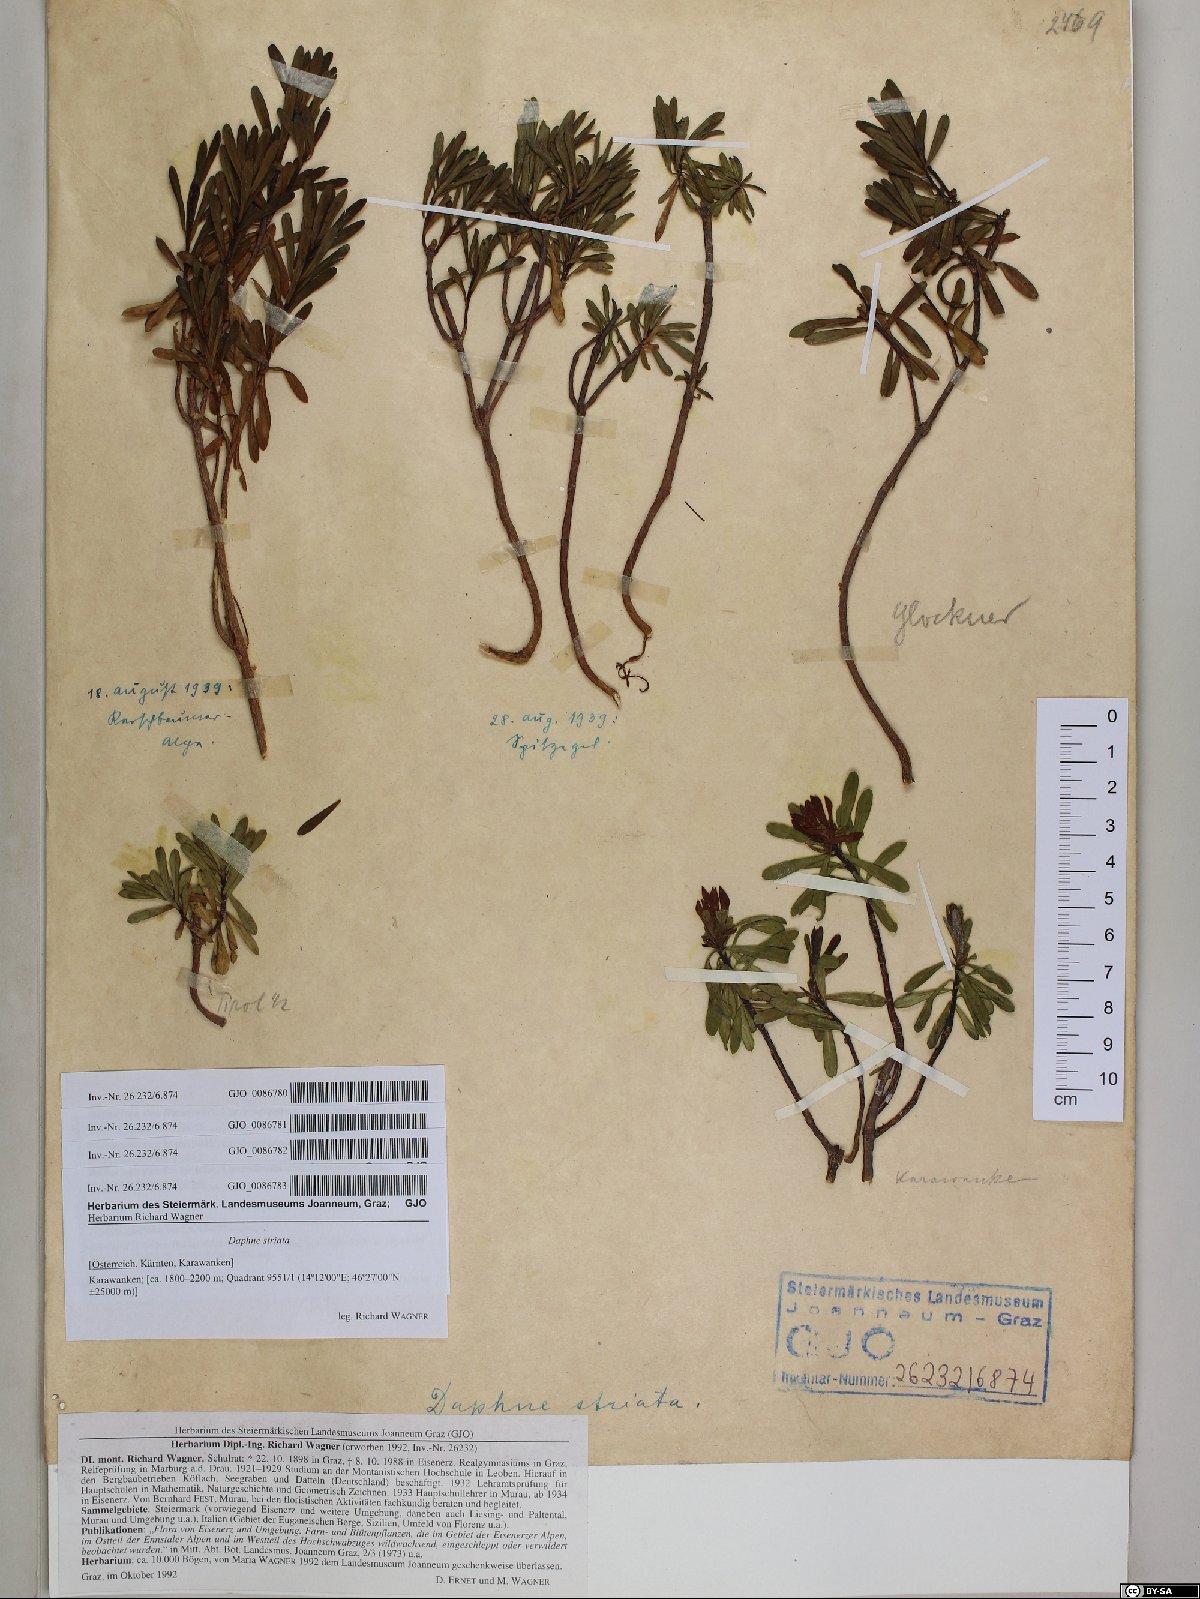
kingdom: Plantae
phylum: Tracheophyta
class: Magnoliopsida
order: Malvales
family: Thymelaeaceae
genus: Daphne
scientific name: Daphne striata
